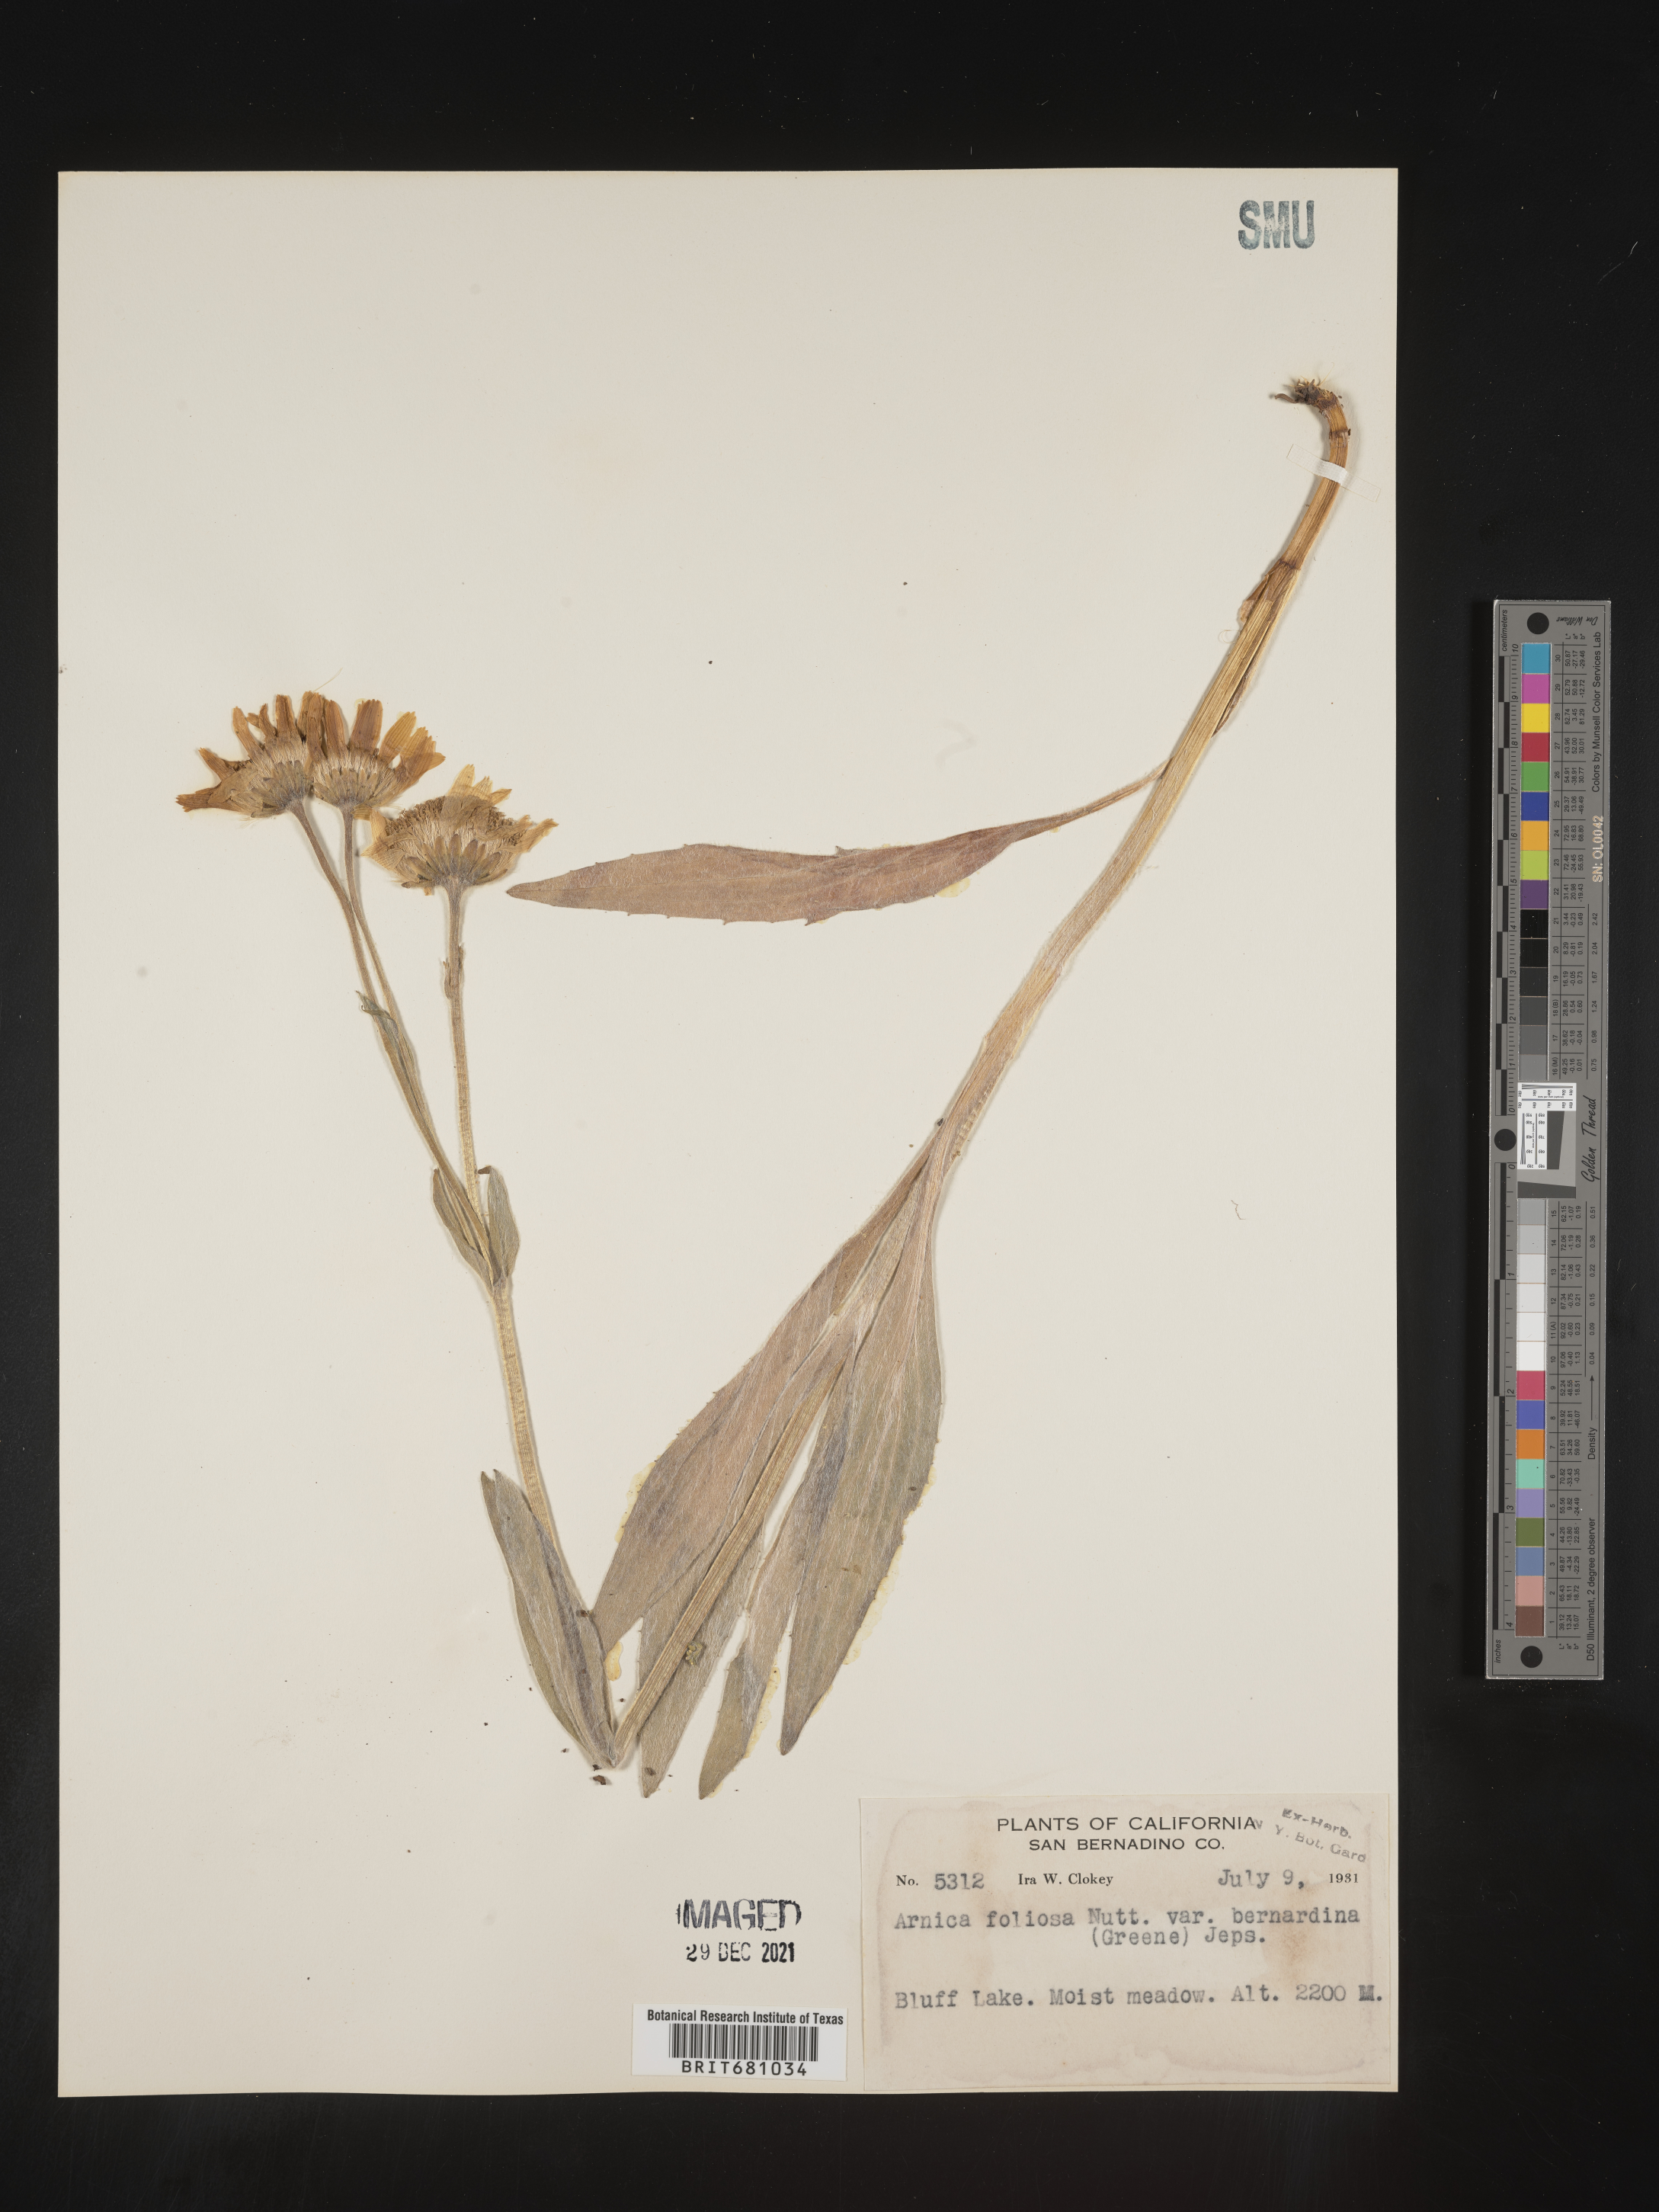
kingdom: Plantae
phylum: Tracheophyta
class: Magnoliopsida
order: Asterales
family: Asteraceae
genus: Arnica
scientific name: Arnica
